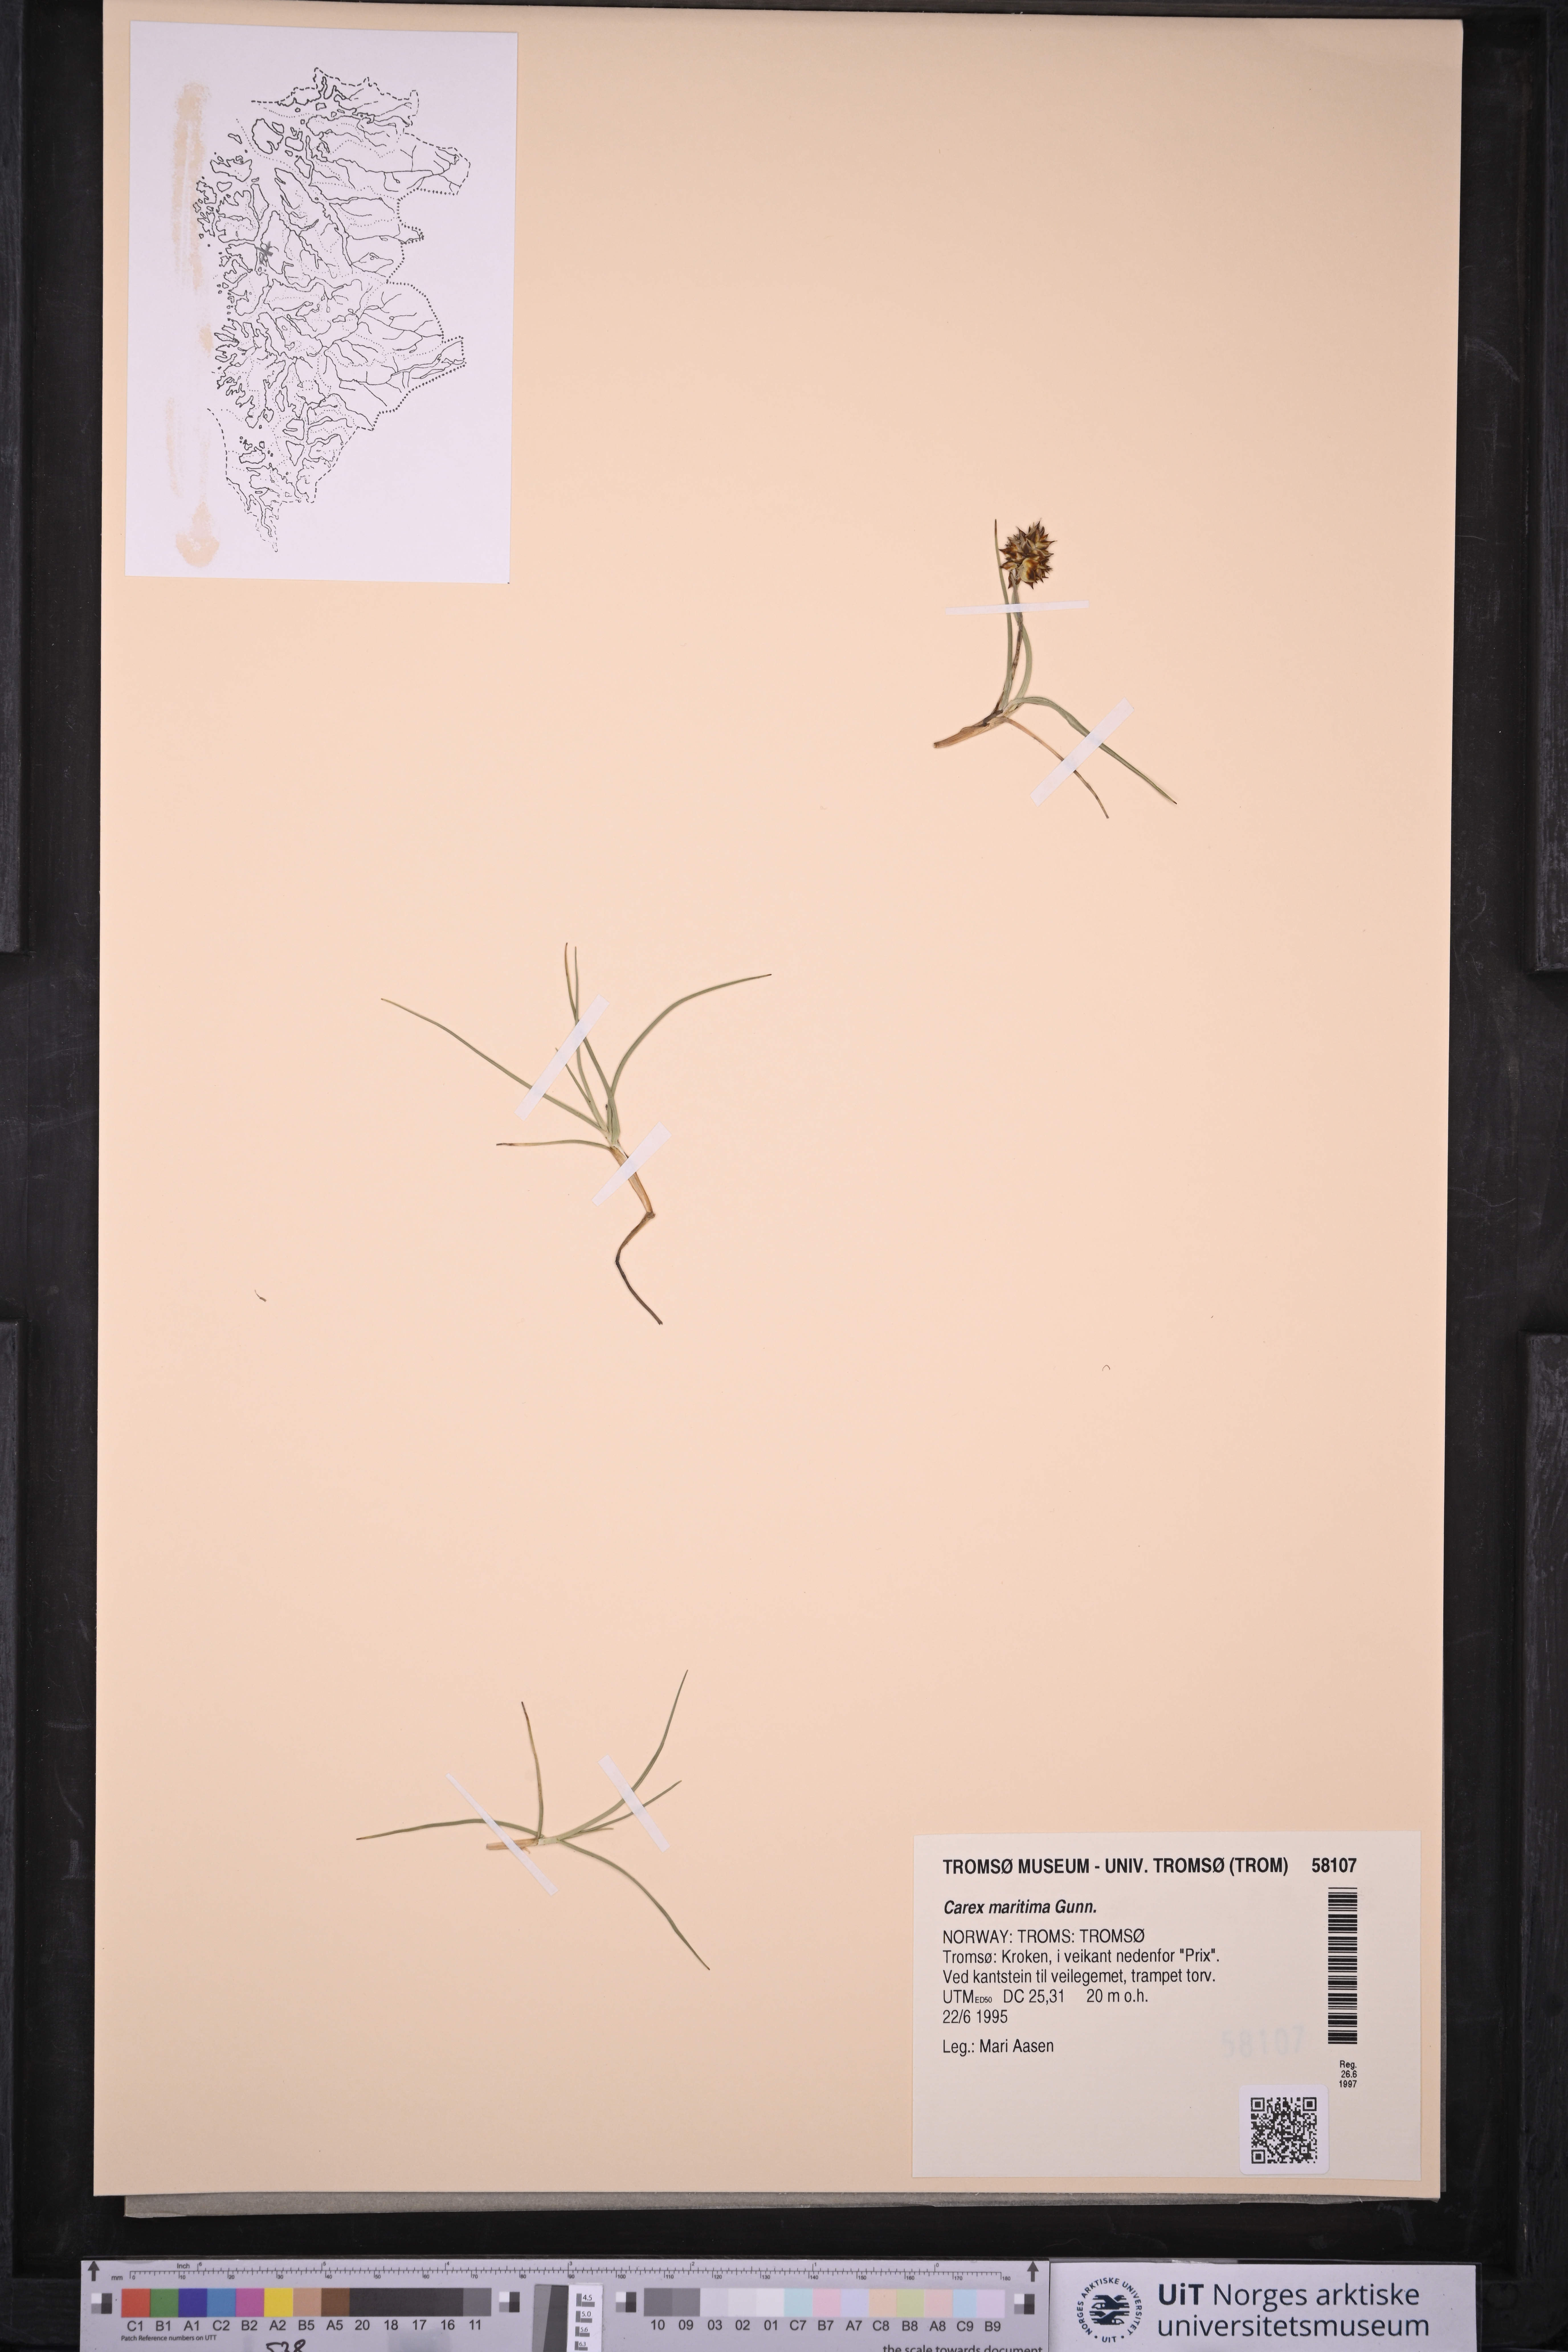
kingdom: Plantae
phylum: Tracheophyta
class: Liliopsida
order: Poales
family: Cyperaceae
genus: Carex
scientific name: Carex maritima
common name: Curved sedge
